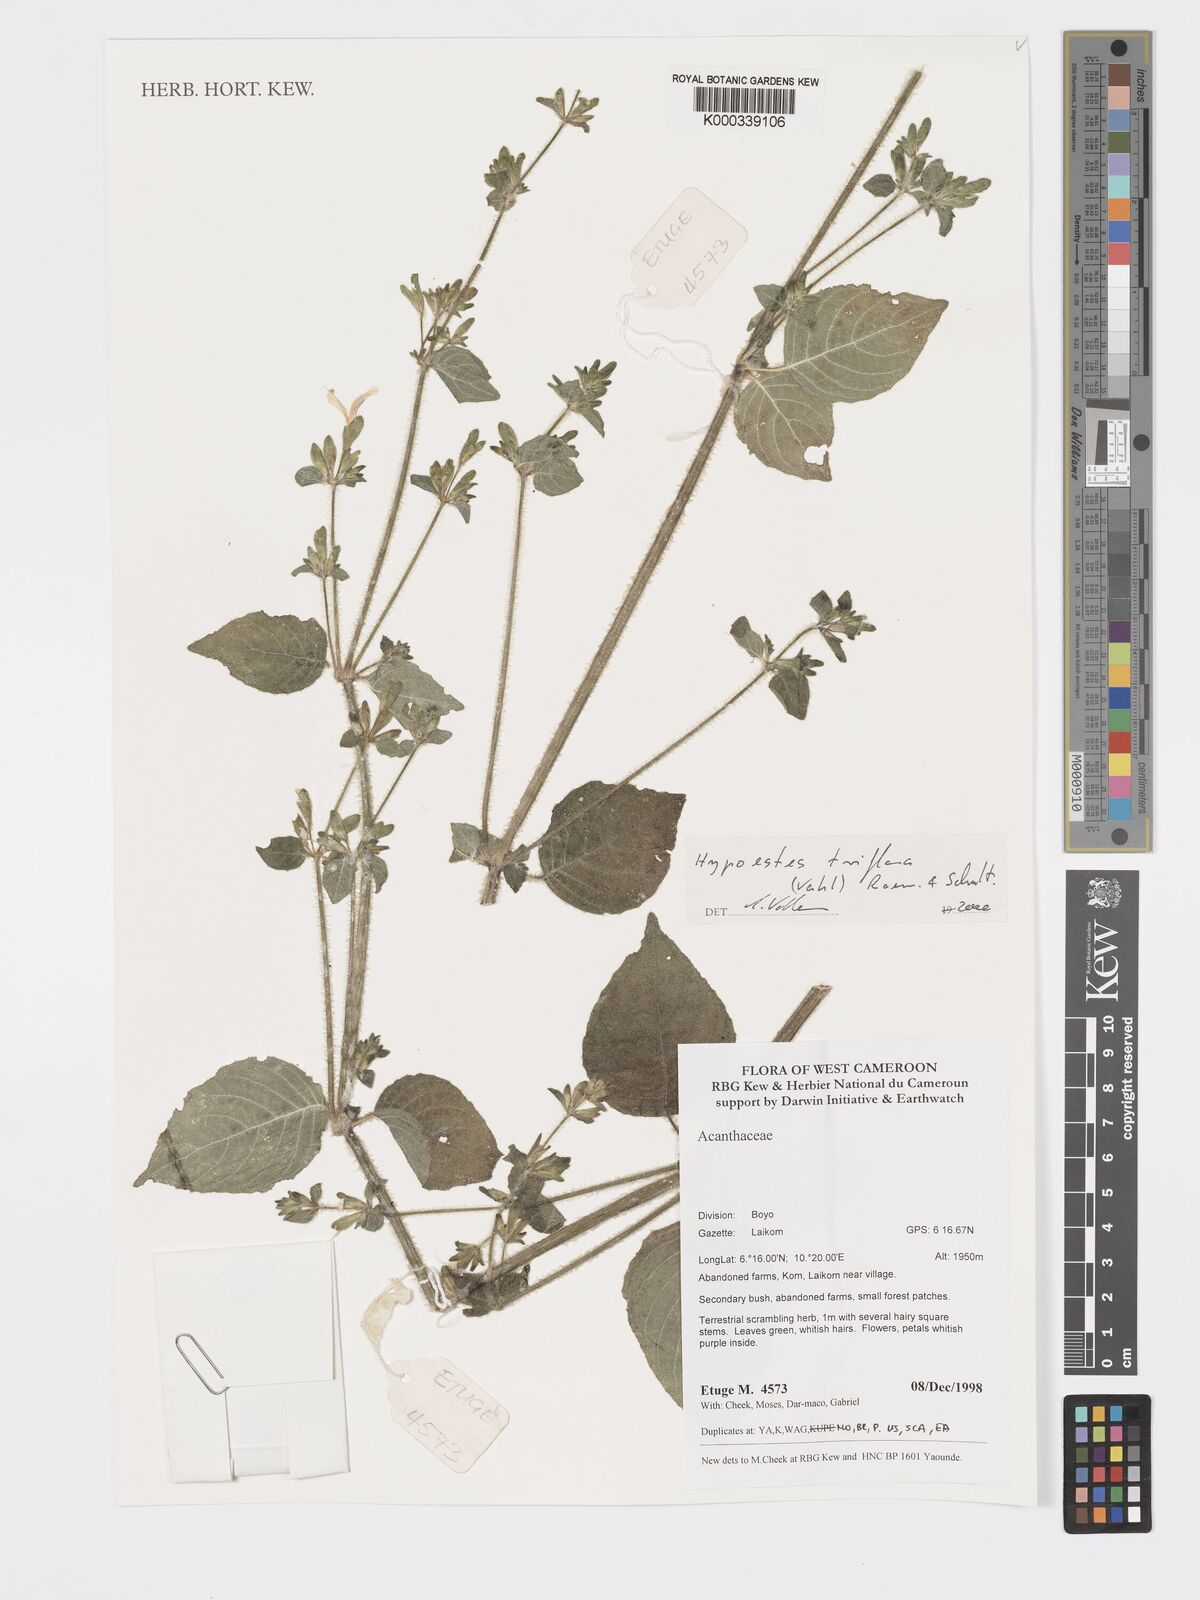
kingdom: Plantae
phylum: Tracheophyta
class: Magnoliopsida
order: Lamiales
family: Acanthaceae
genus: Hypoestes
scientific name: Hypoestes triflora
